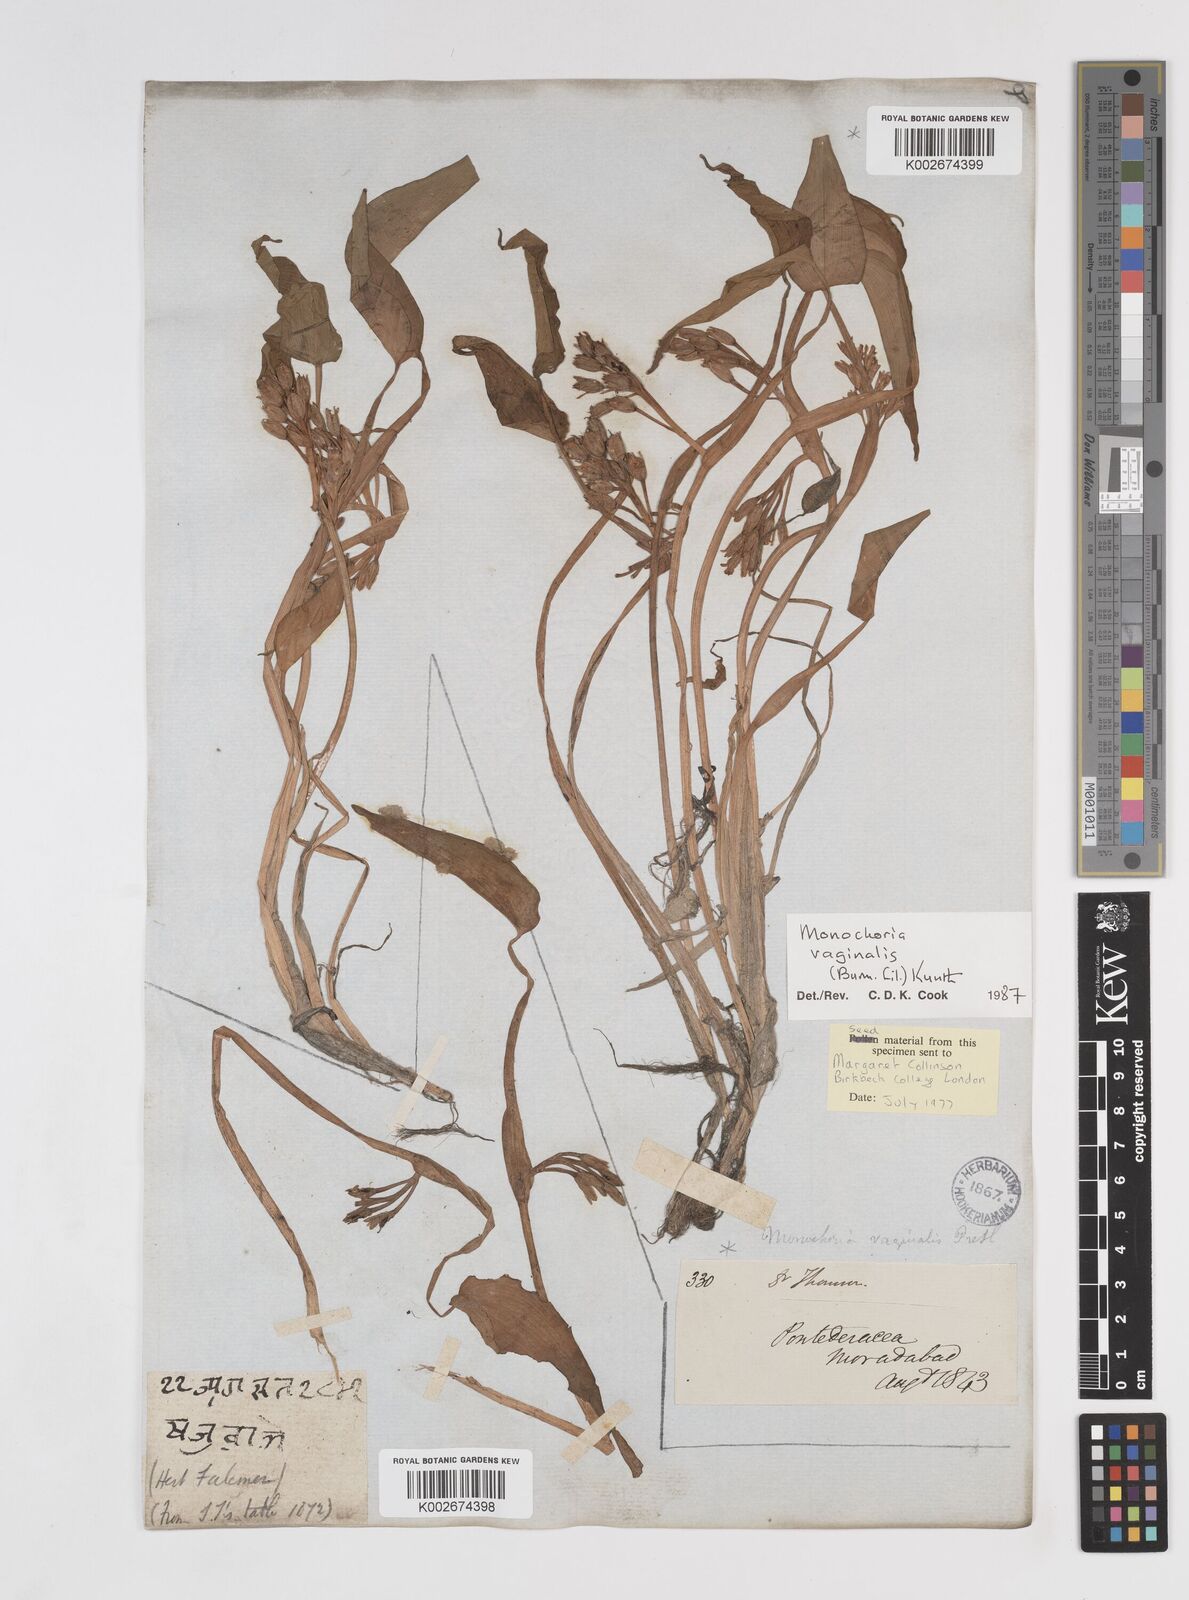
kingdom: Plantae
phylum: Tracheophyta
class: Liliopsida
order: Commelinales
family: Pontederiaceae
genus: Pontederia
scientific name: Pontederia vaginalis
